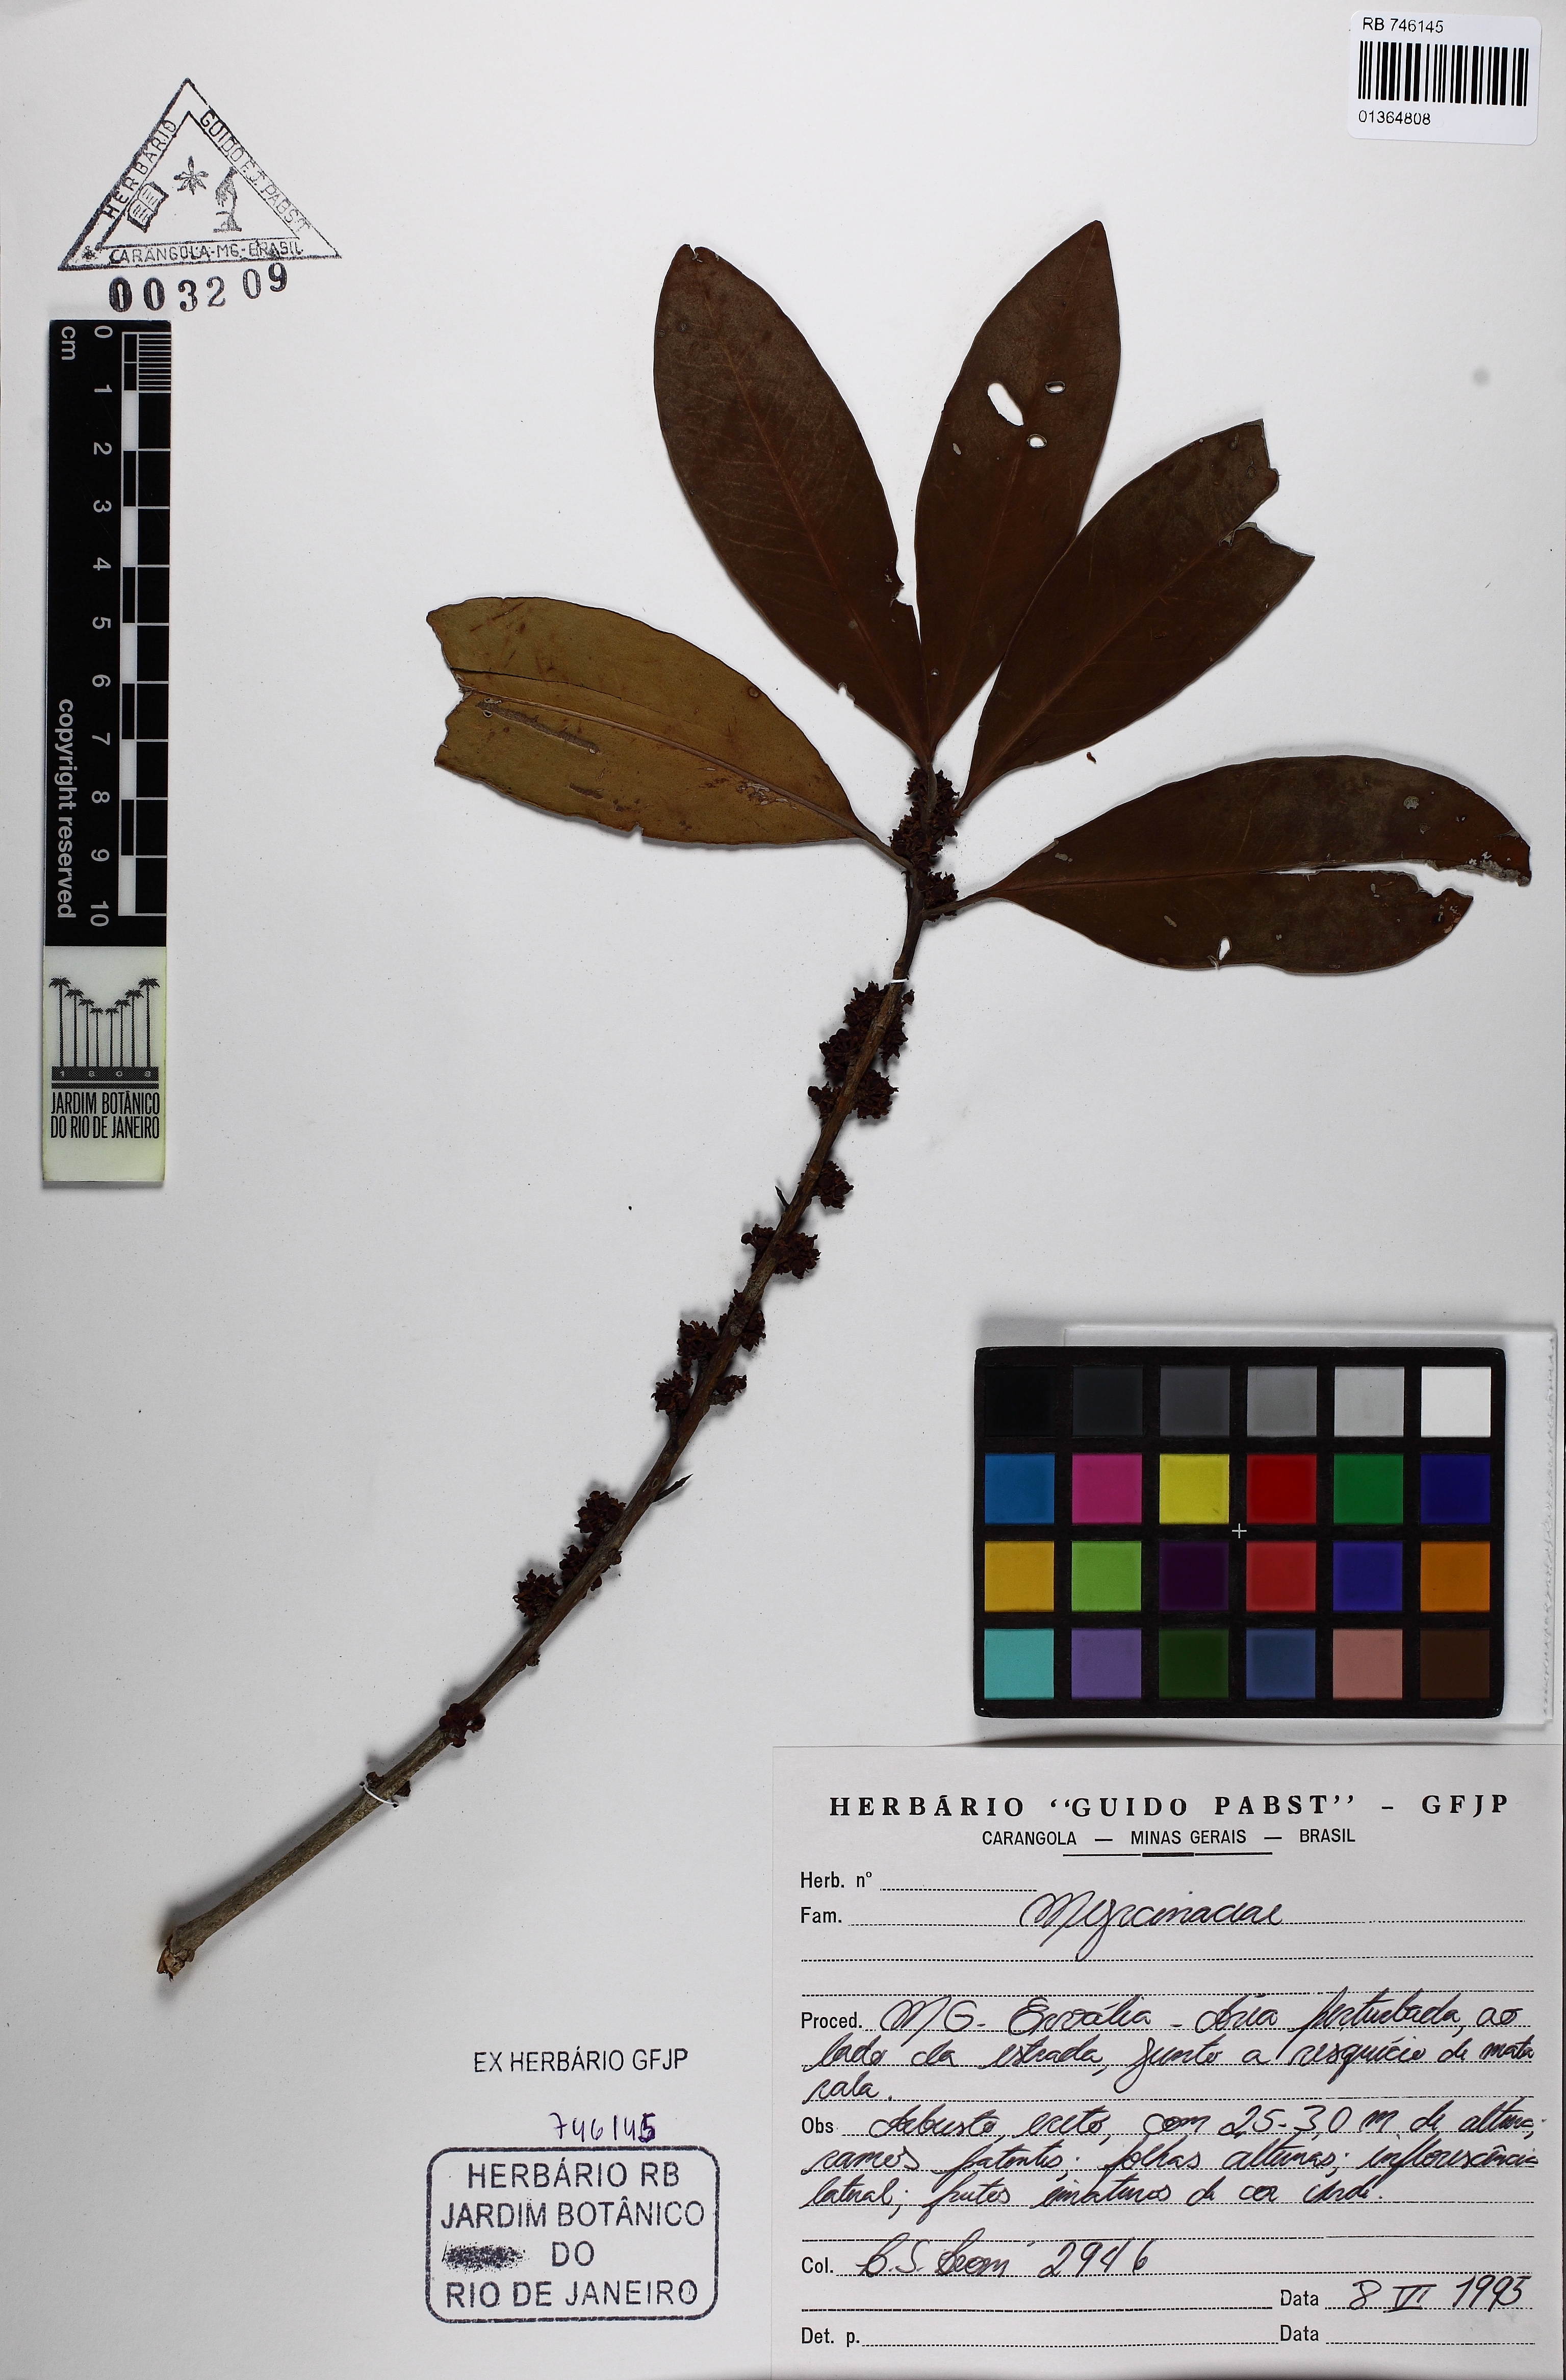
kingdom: Plantae
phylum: Tracheophyta
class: Magnoliopsida
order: Ericales
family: Primulaceae
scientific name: Primulaceae
